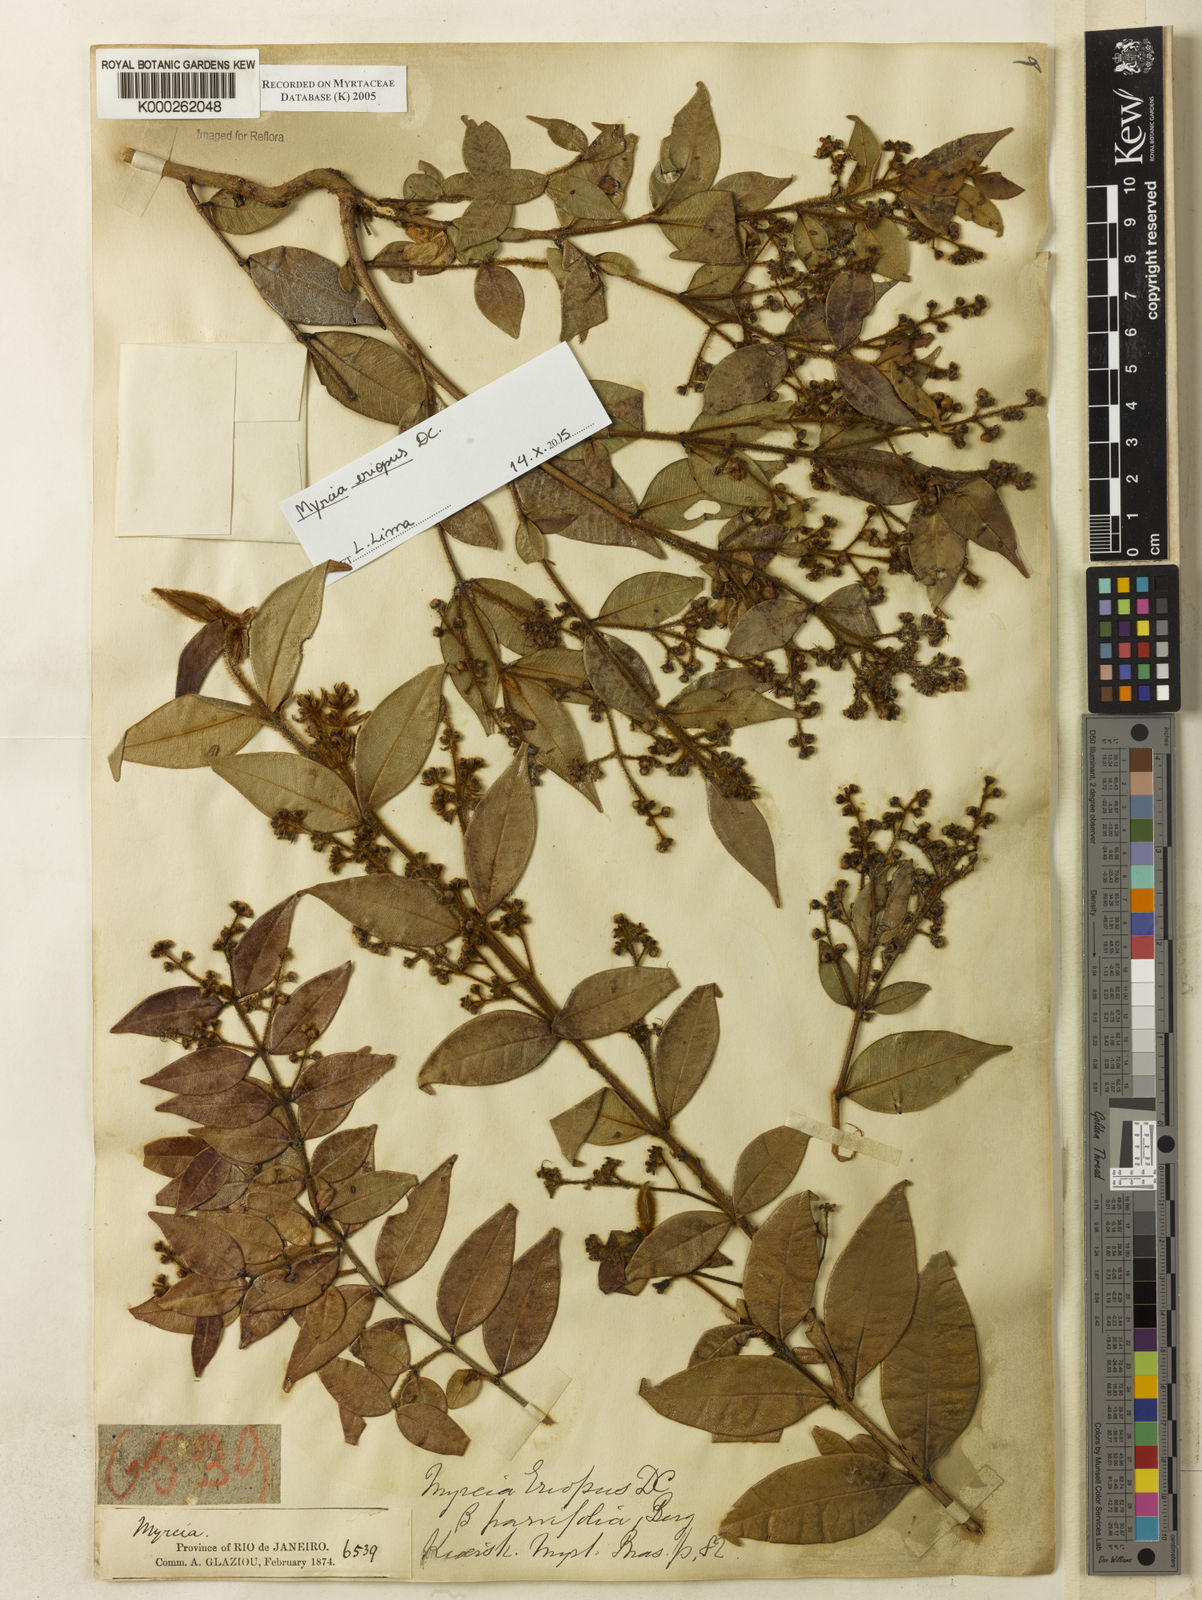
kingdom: Plantae
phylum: Tracheophyta
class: Magnoliopsida
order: Myrtales
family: Myrtaceae
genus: Myrcia
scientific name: Myrcia eriopus
